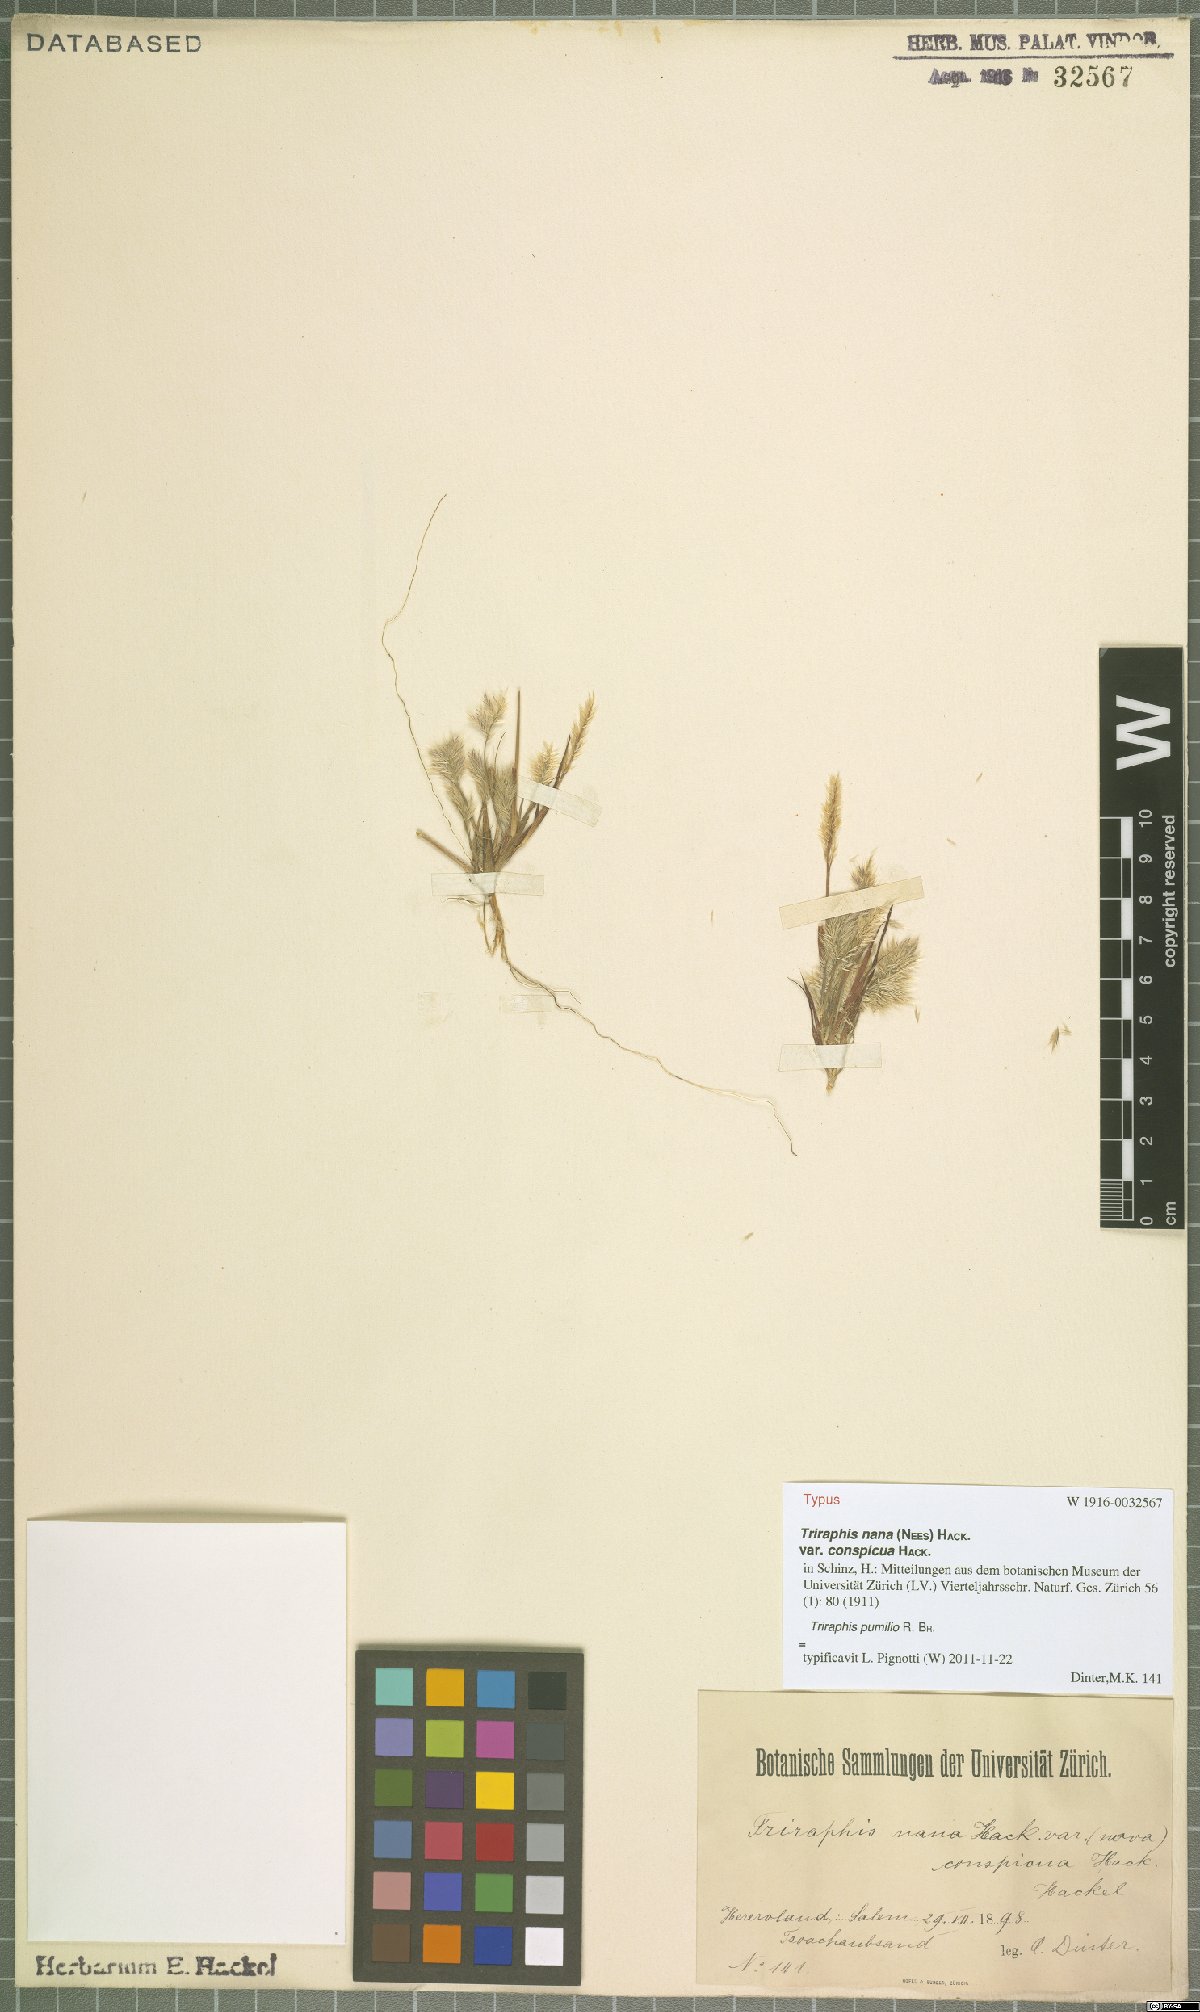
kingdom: Plantae
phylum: Tracheophyta
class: Liliopsida
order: Poales
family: Poaceae
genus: Triraphis
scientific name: Triraphis pumilio
